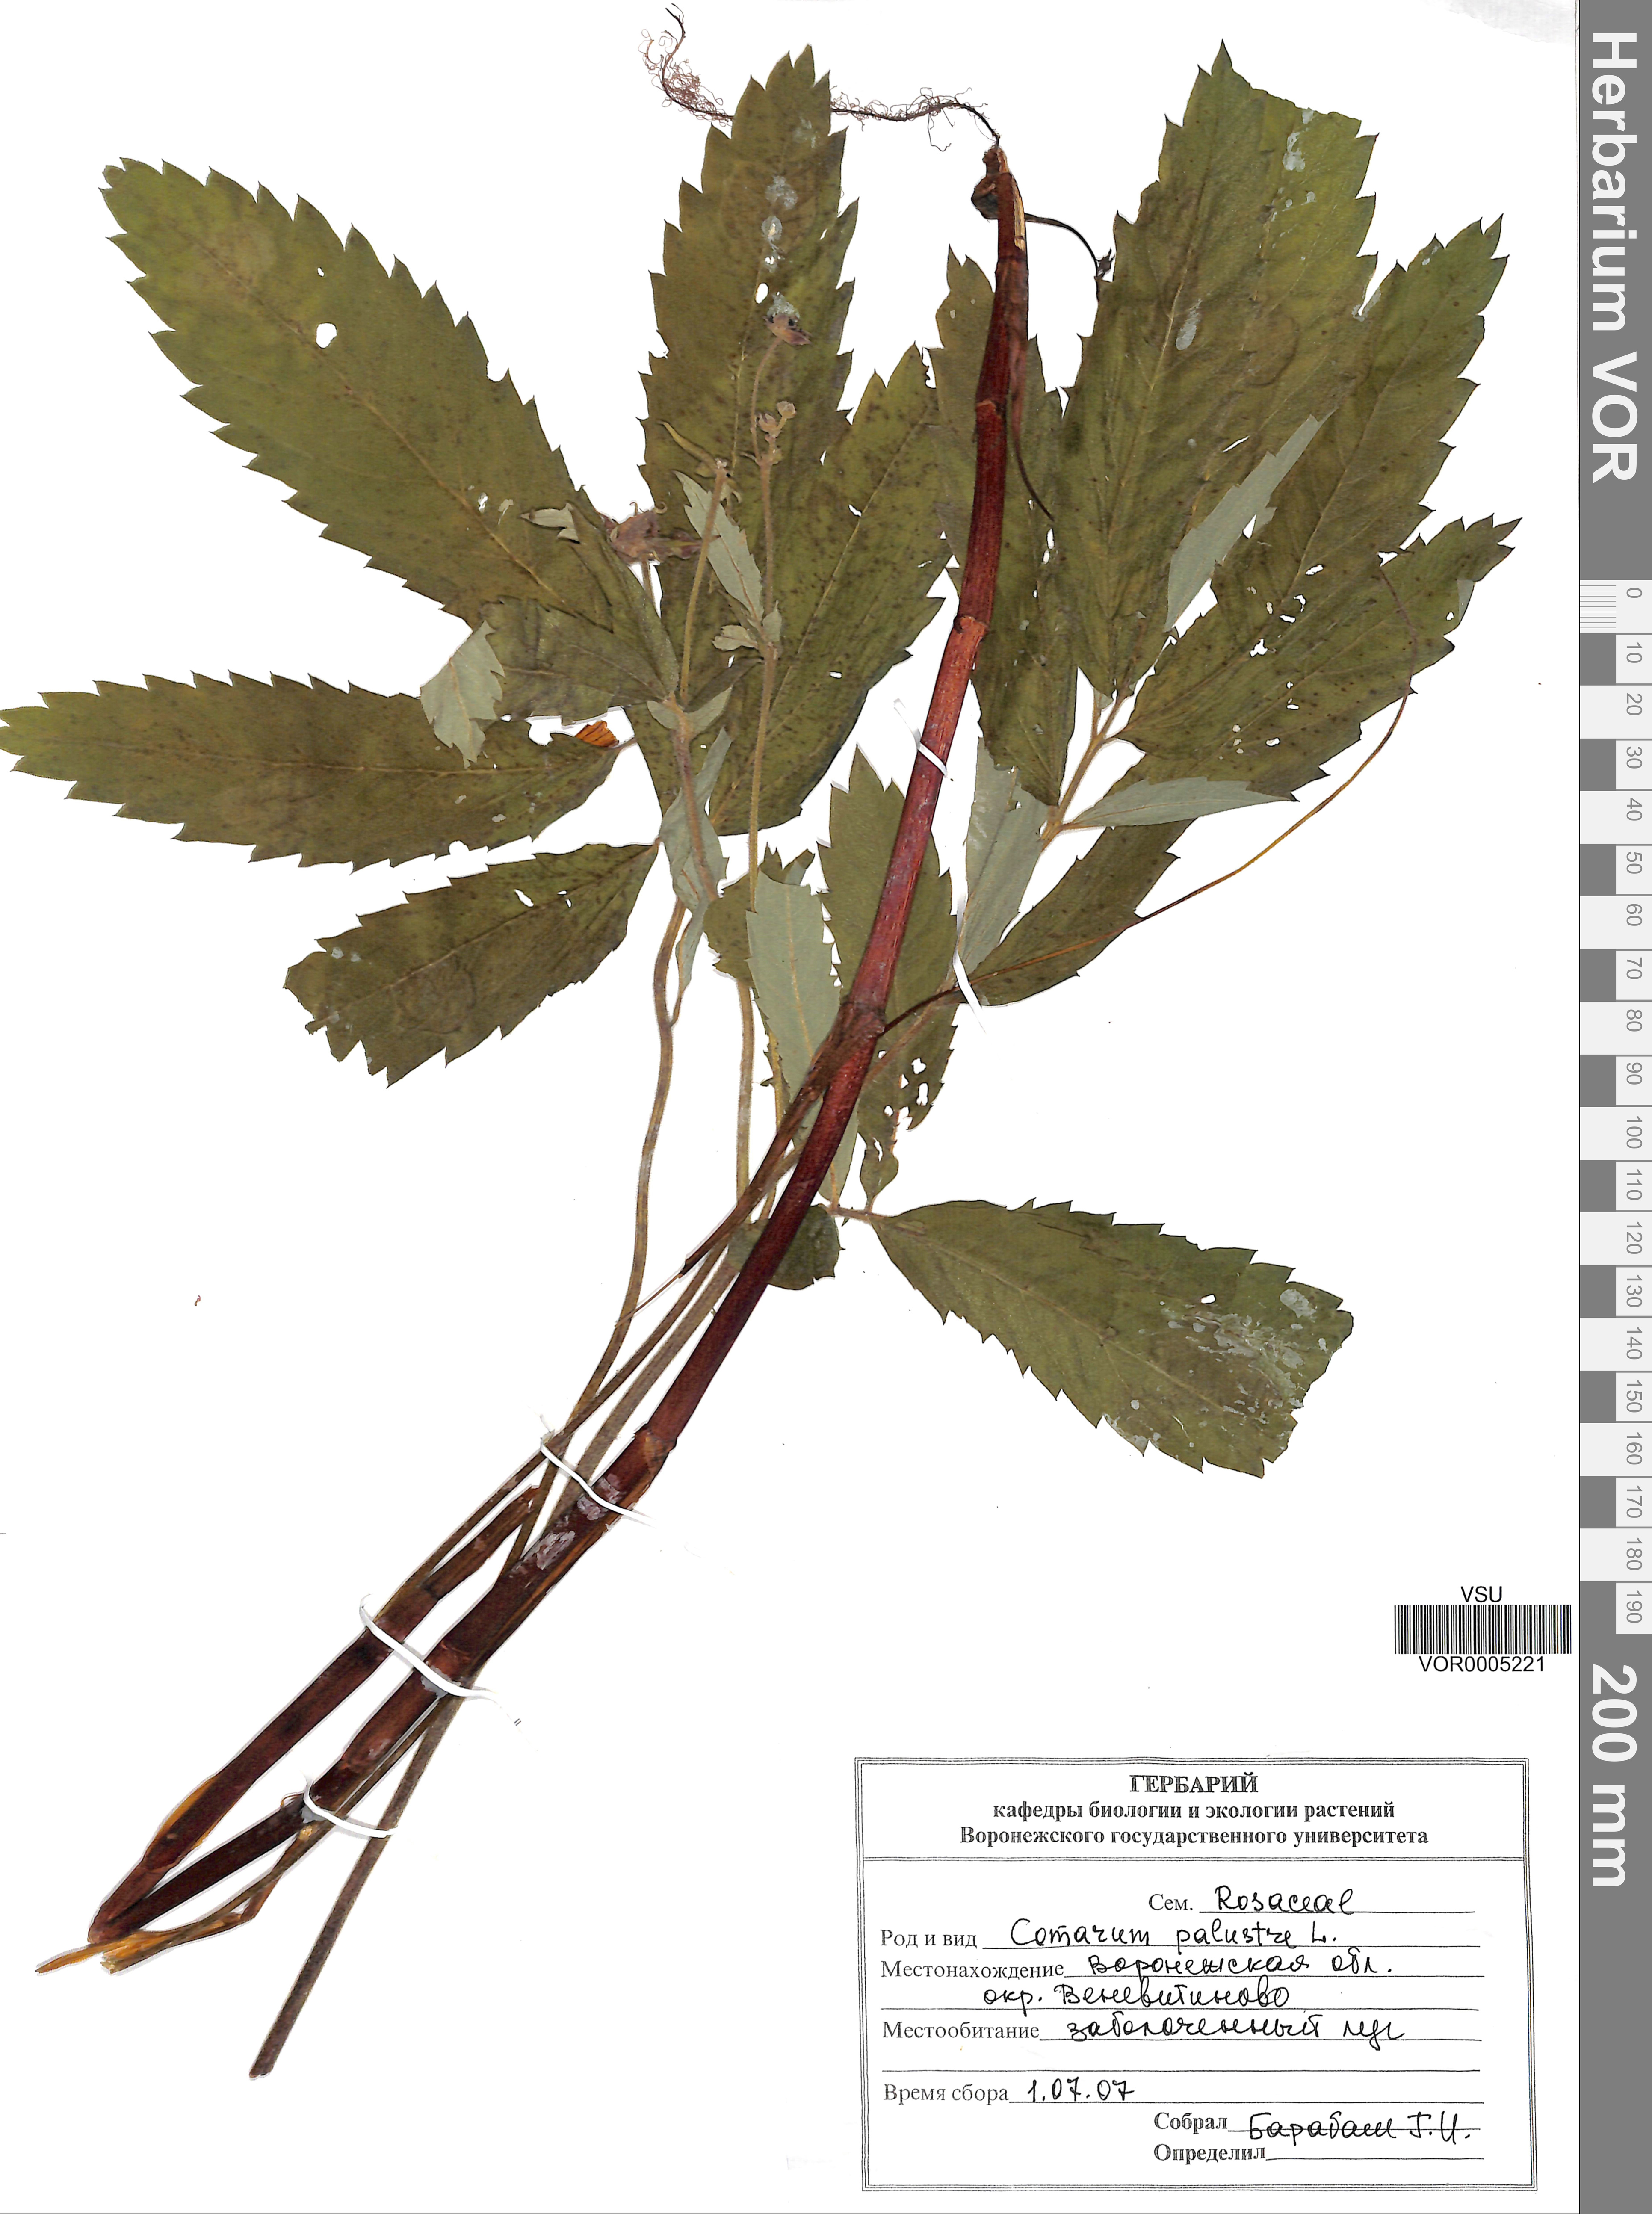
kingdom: Plantae
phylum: Tracheophyta
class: Magnoliopsida
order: Rosales
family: Rosaceae
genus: Comarum
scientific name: Comarum palustre
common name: Marsh cinquefoil
